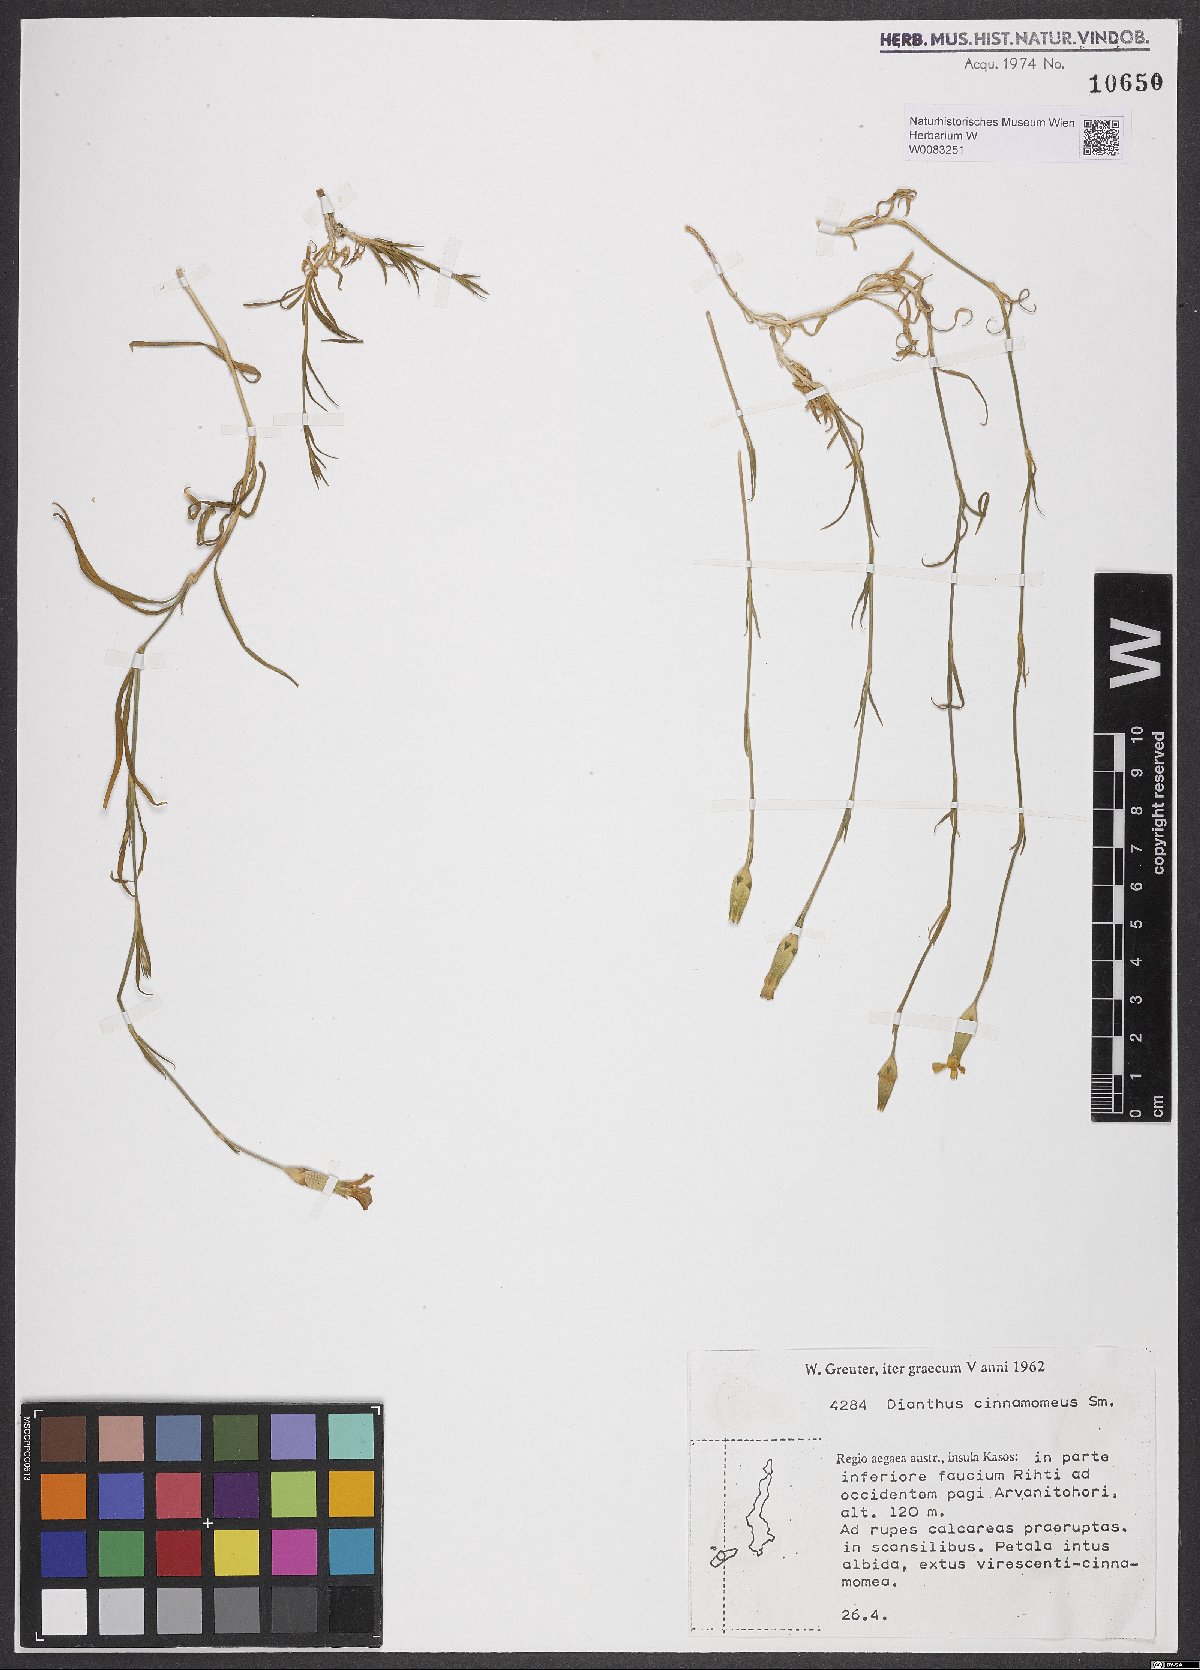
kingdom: Plantae
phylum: Tracheophyta
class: Magnoliopsida
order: Caryophyllales
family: Caryophyllaceae
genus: Dianthus
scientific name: Dianthus cinnamomeus
